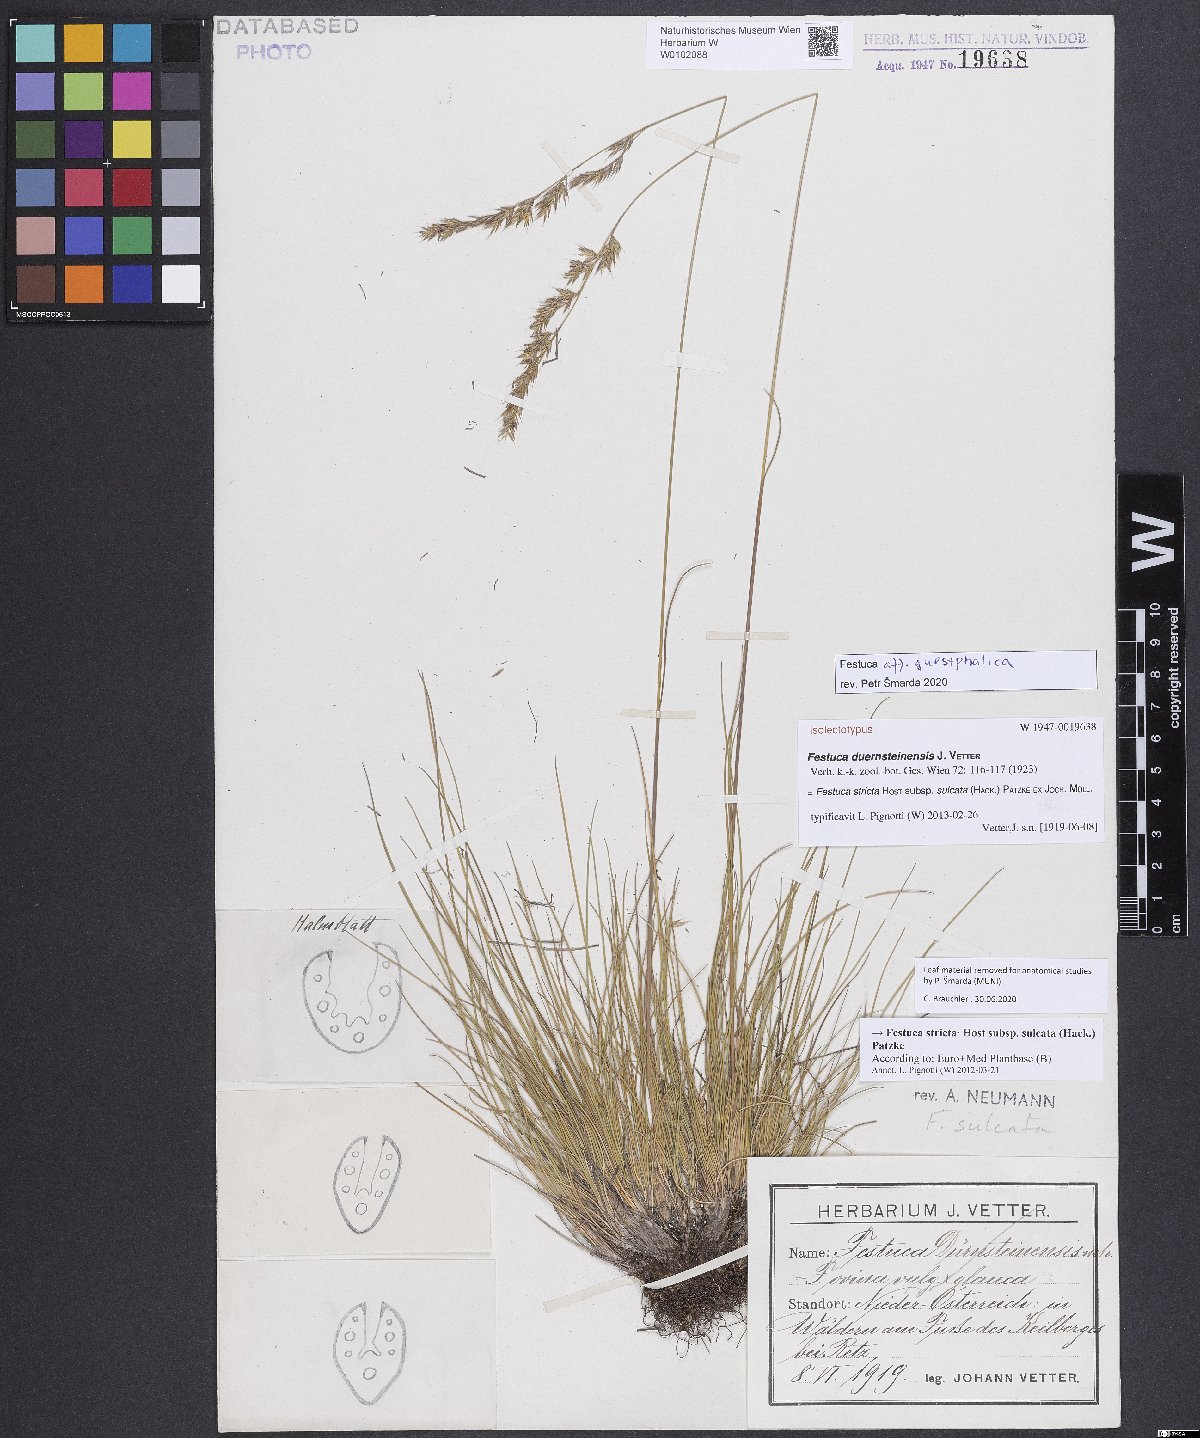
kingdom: Plantae
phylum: Tracheophyta
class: Liliopsida
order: Poales
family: Poaceae
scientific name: Poaceae
